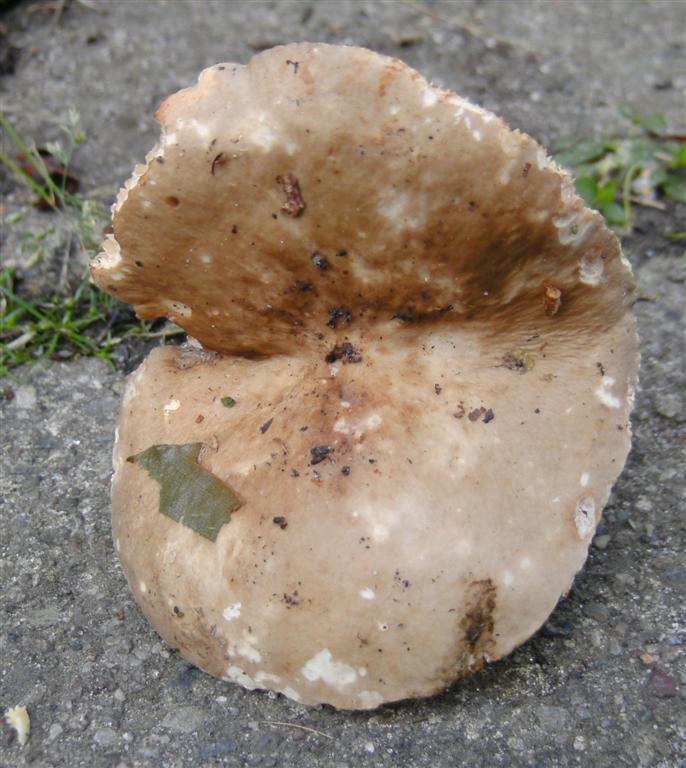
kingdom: Fungi
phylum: Basidiomycota
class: Agaricomycetes
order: Russulales
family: Russulaceae
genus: Lactarius
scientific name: Lactarius acris
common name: rosamælket mælkehat
